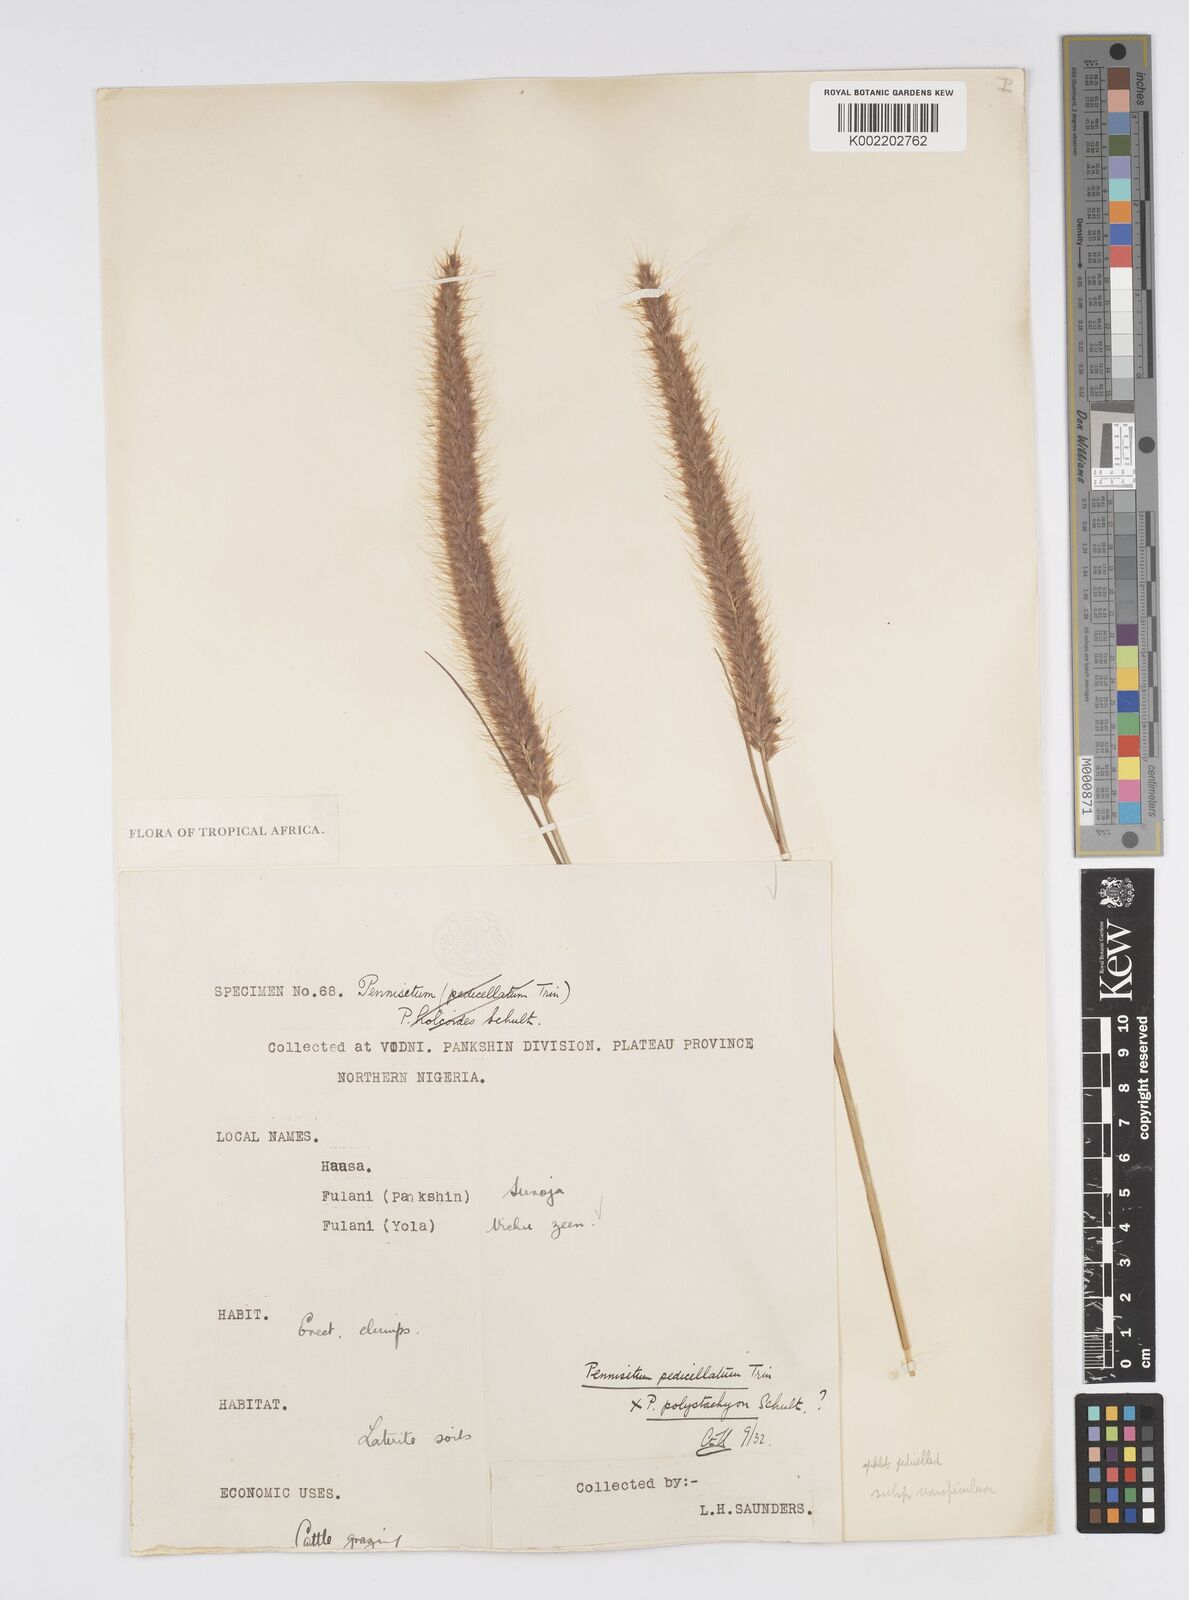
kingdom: Plantae
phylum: Tracheophyta
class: Liliopsida
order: Poales
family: Poaceae
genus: Cenchrus
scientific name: Cenchrus pedicellatus
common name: Hairy fountain grass
